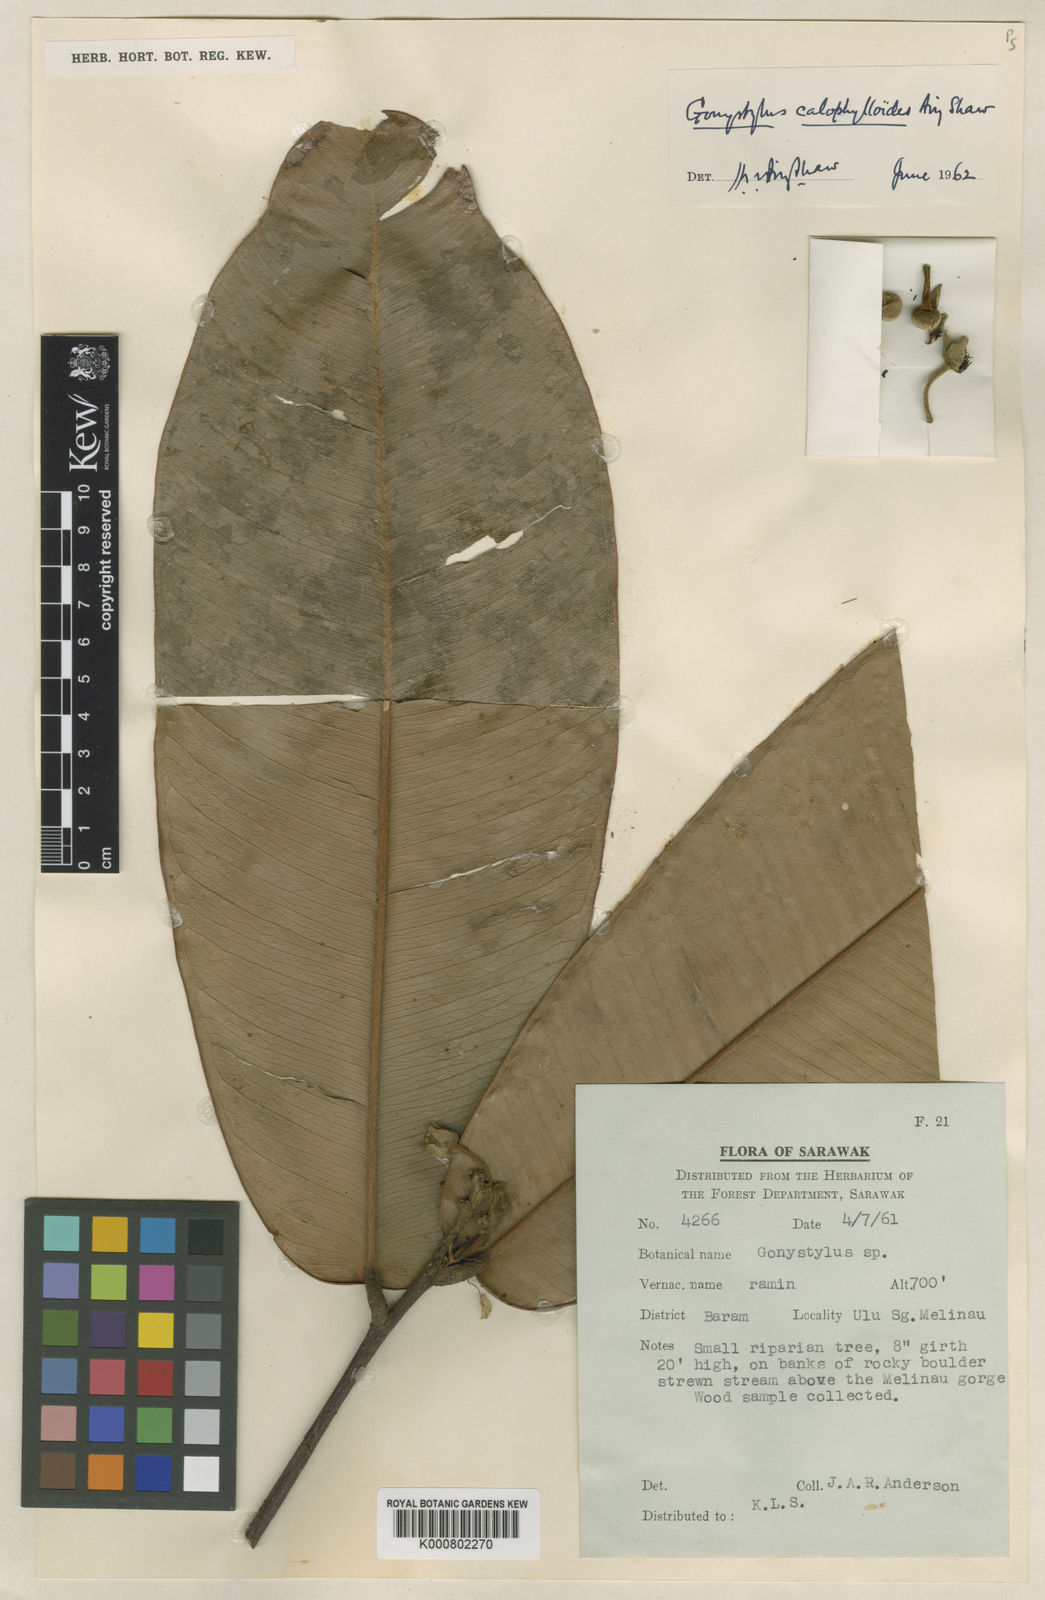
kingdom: Plantae
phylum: Tracheophyta
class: Magnoliopsida
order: Malvales
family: Thymelaeaceae
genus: Gonystylus
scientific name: Gonystylus calophylloides
